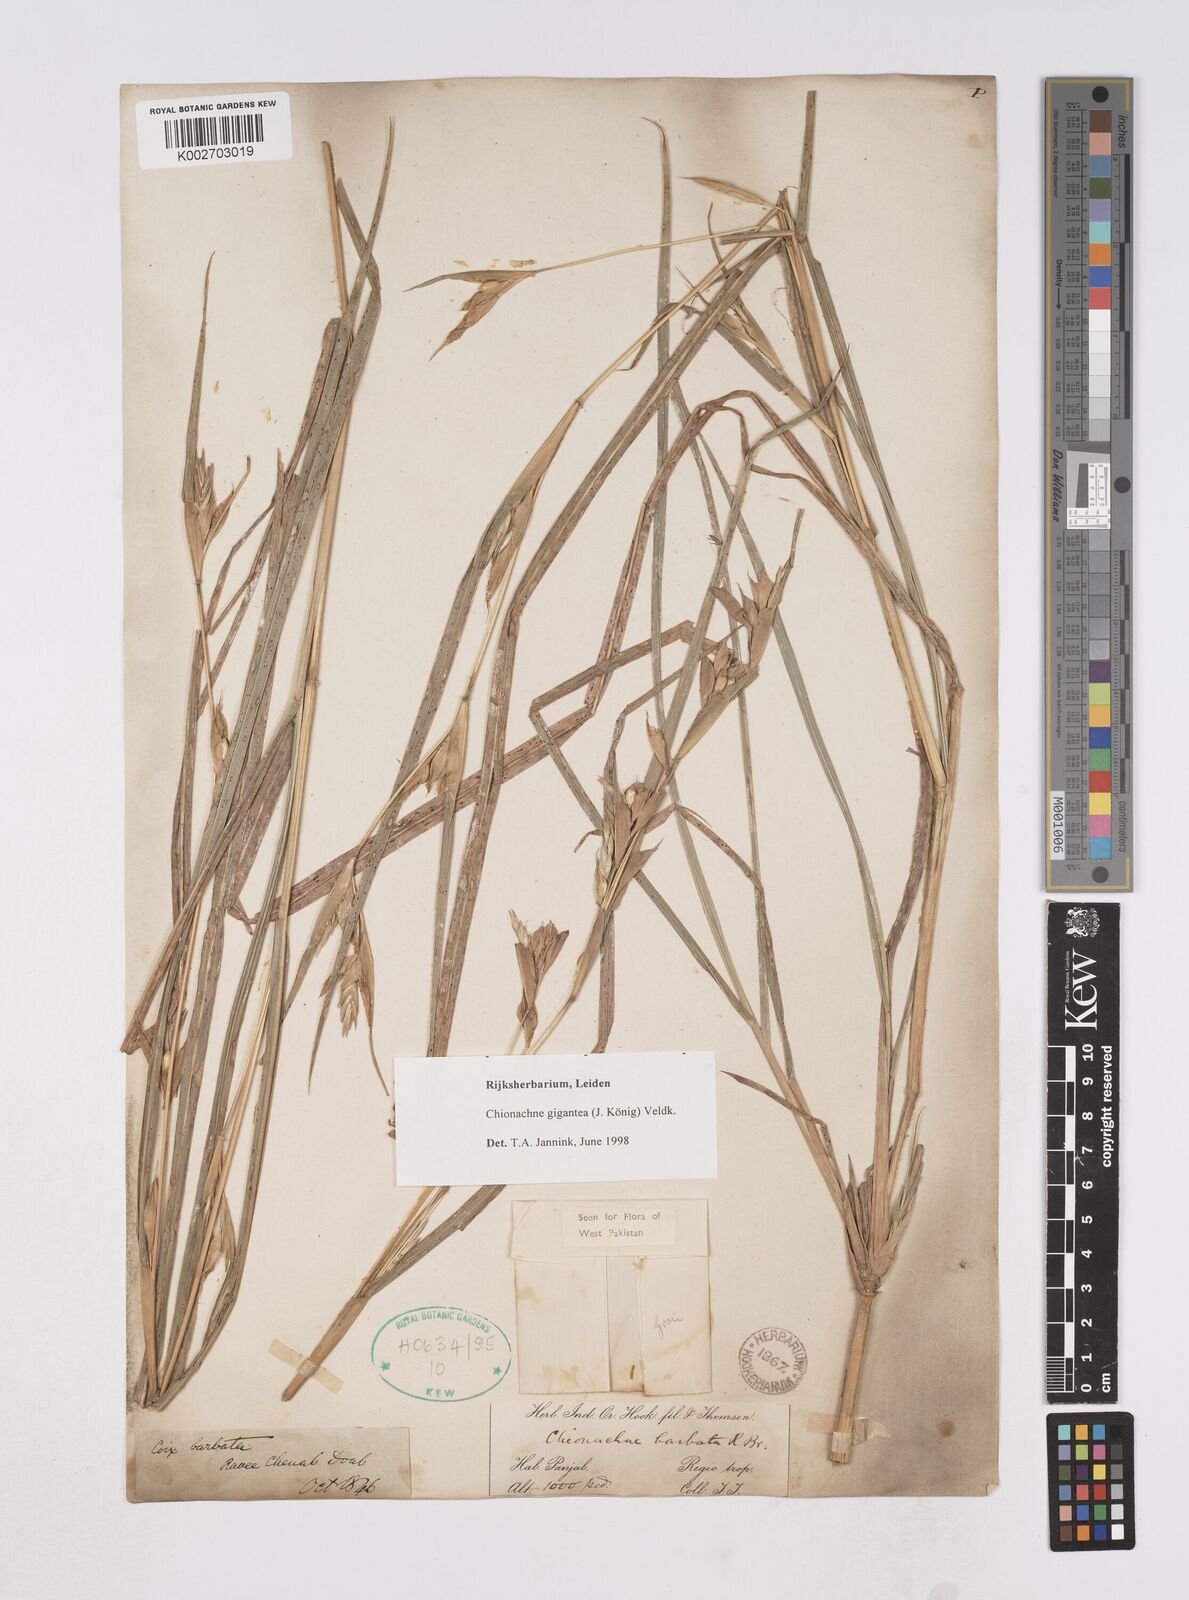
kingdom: Plantae
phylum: Tracheophyta
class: Liliopsida
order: Poales
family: Poaceae
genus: Polytoca
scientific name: Polytoca gigantea
